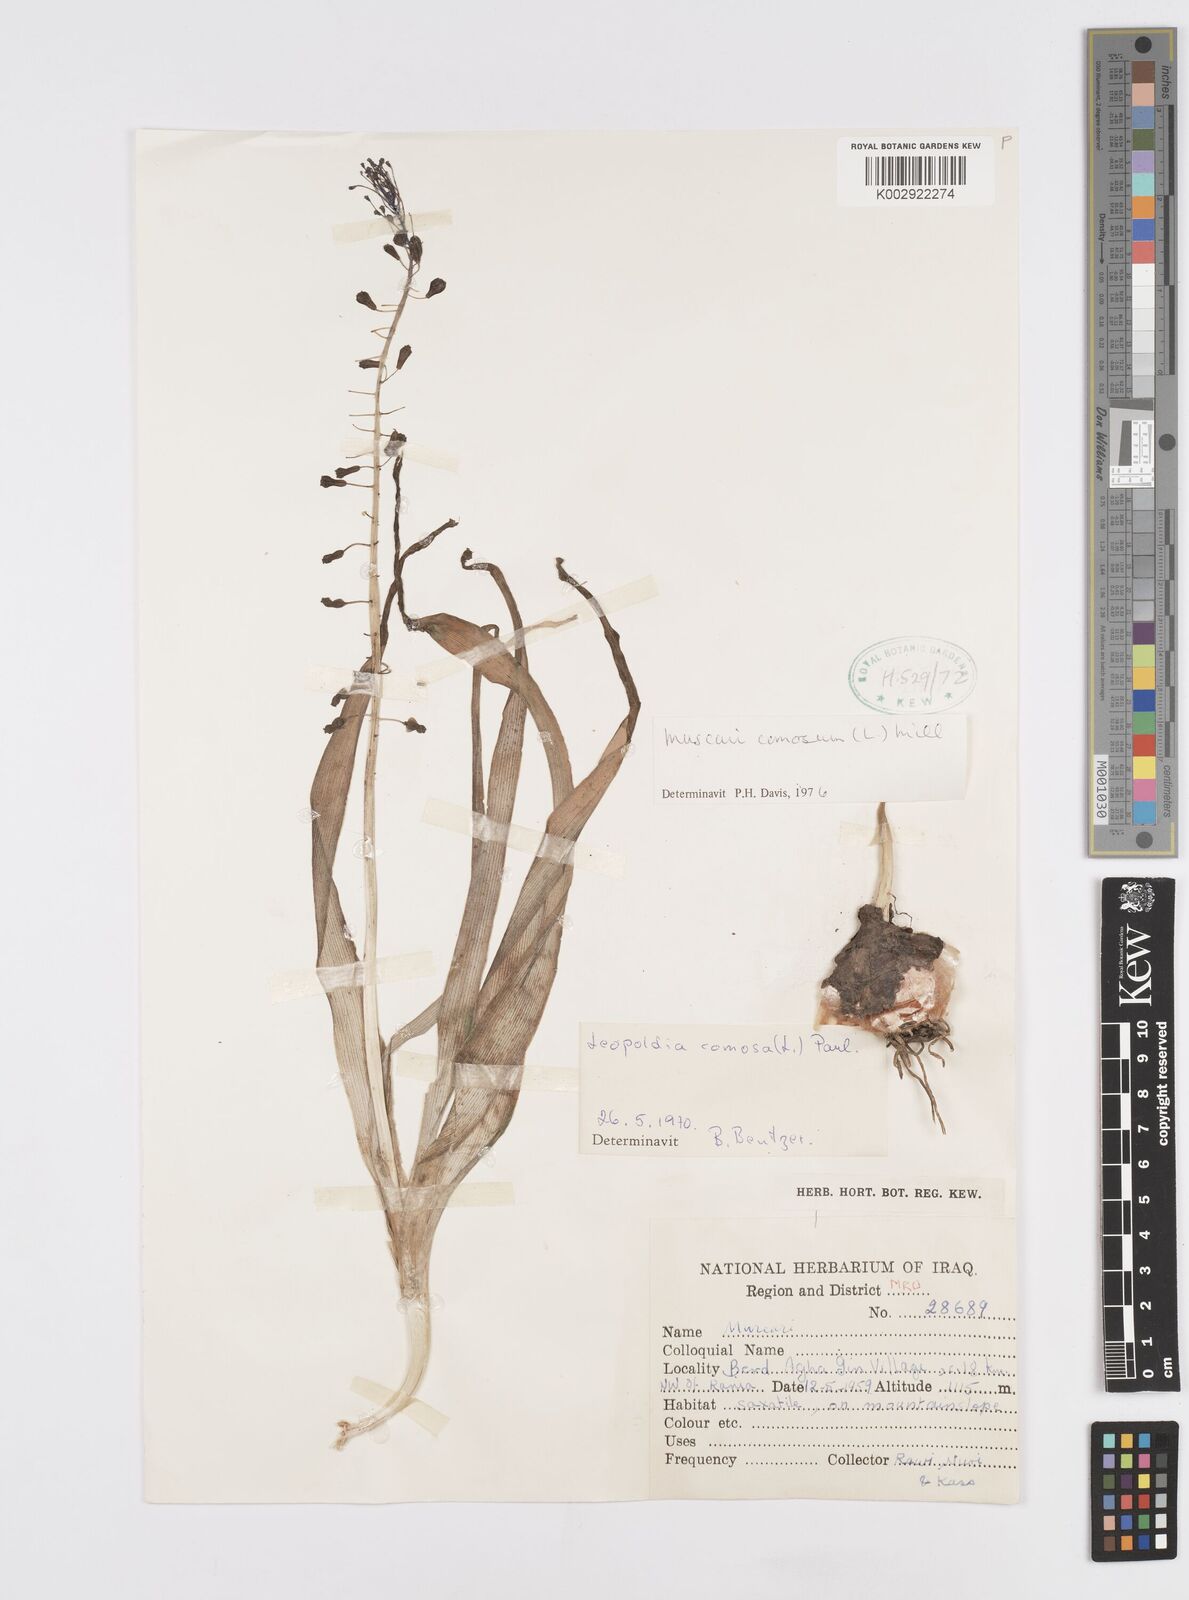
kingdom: Plantae
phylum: Tracheophyta
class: Liliopsida
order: Asparagales
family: Asparagaceae
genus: Muscari
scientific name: Muscari comosum
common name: Tassel hyacinth
